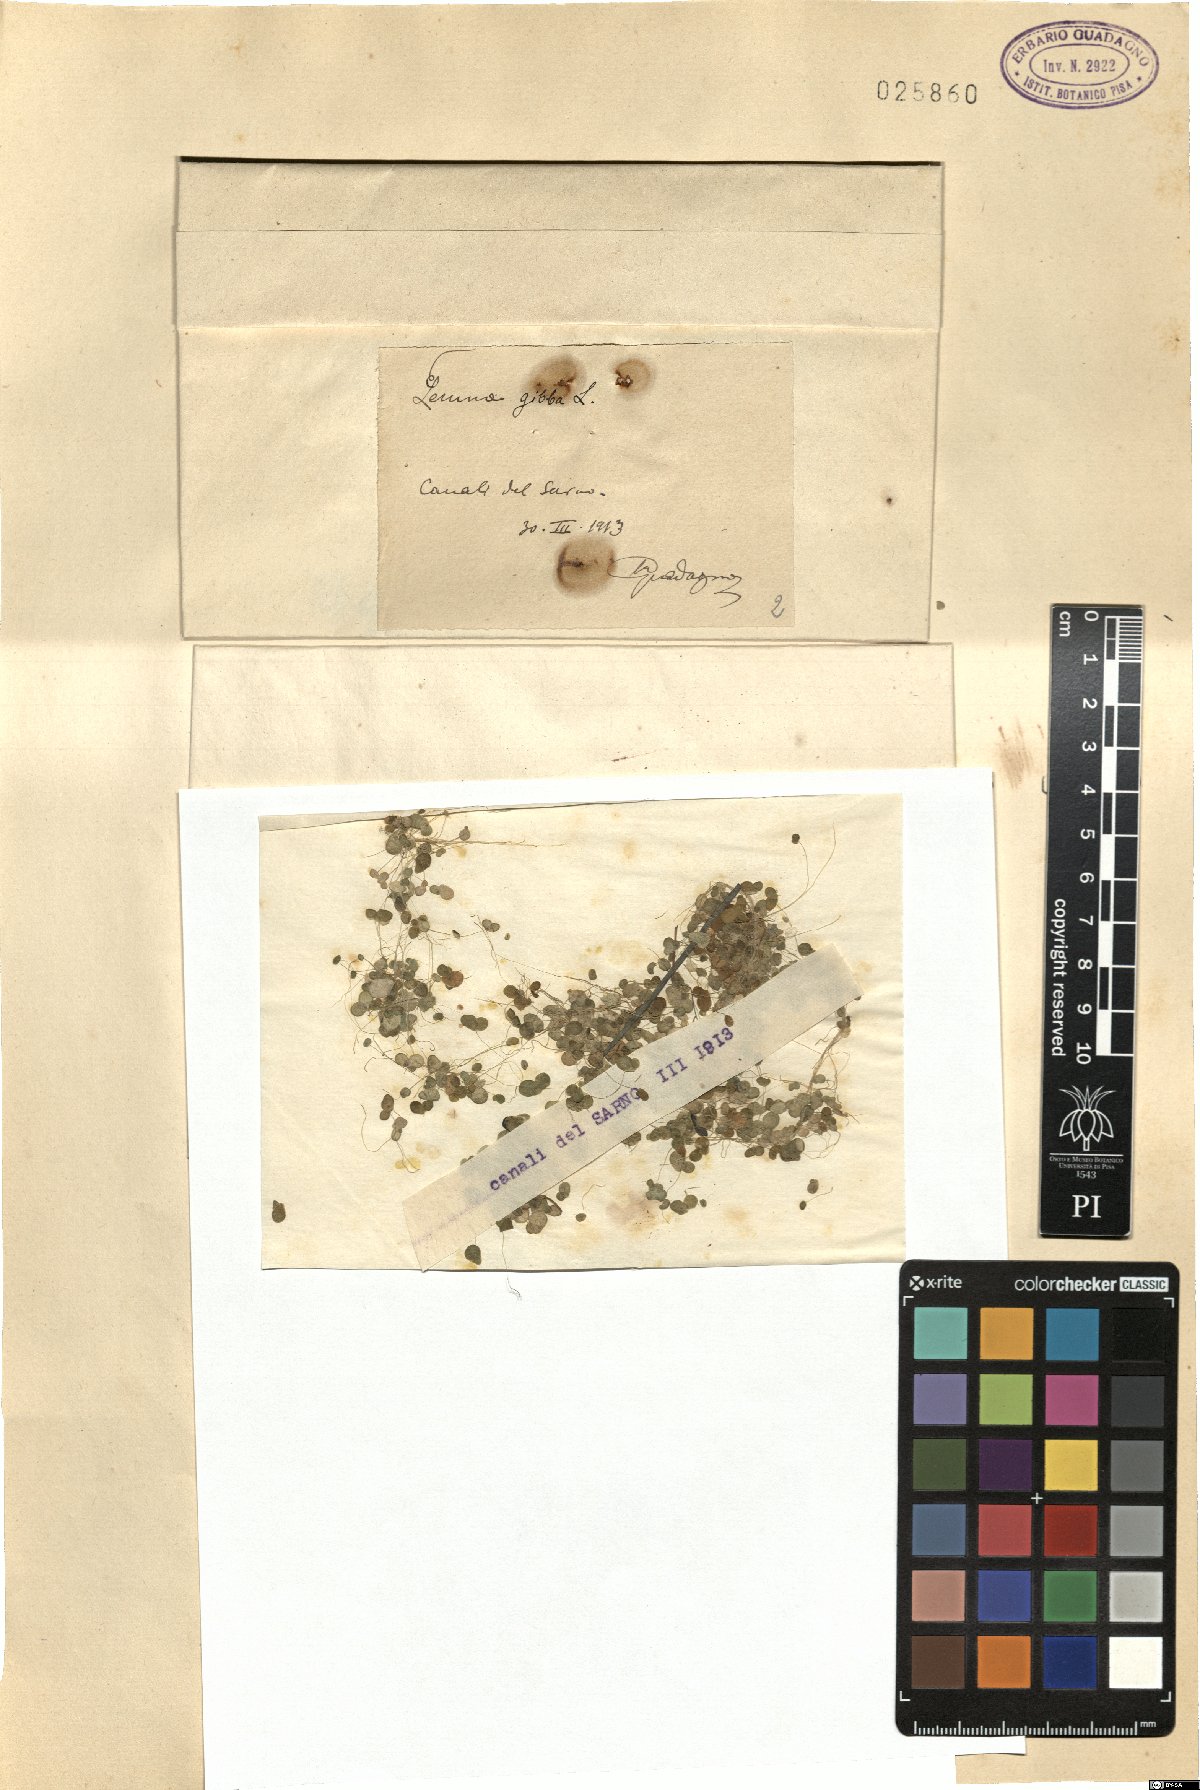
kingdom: Plantae
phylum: Tracheophyta
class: Liliopsida
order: Alismatales
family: Araceae
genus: Lemna
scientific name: Lemna gibba
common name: Fat duckweed
